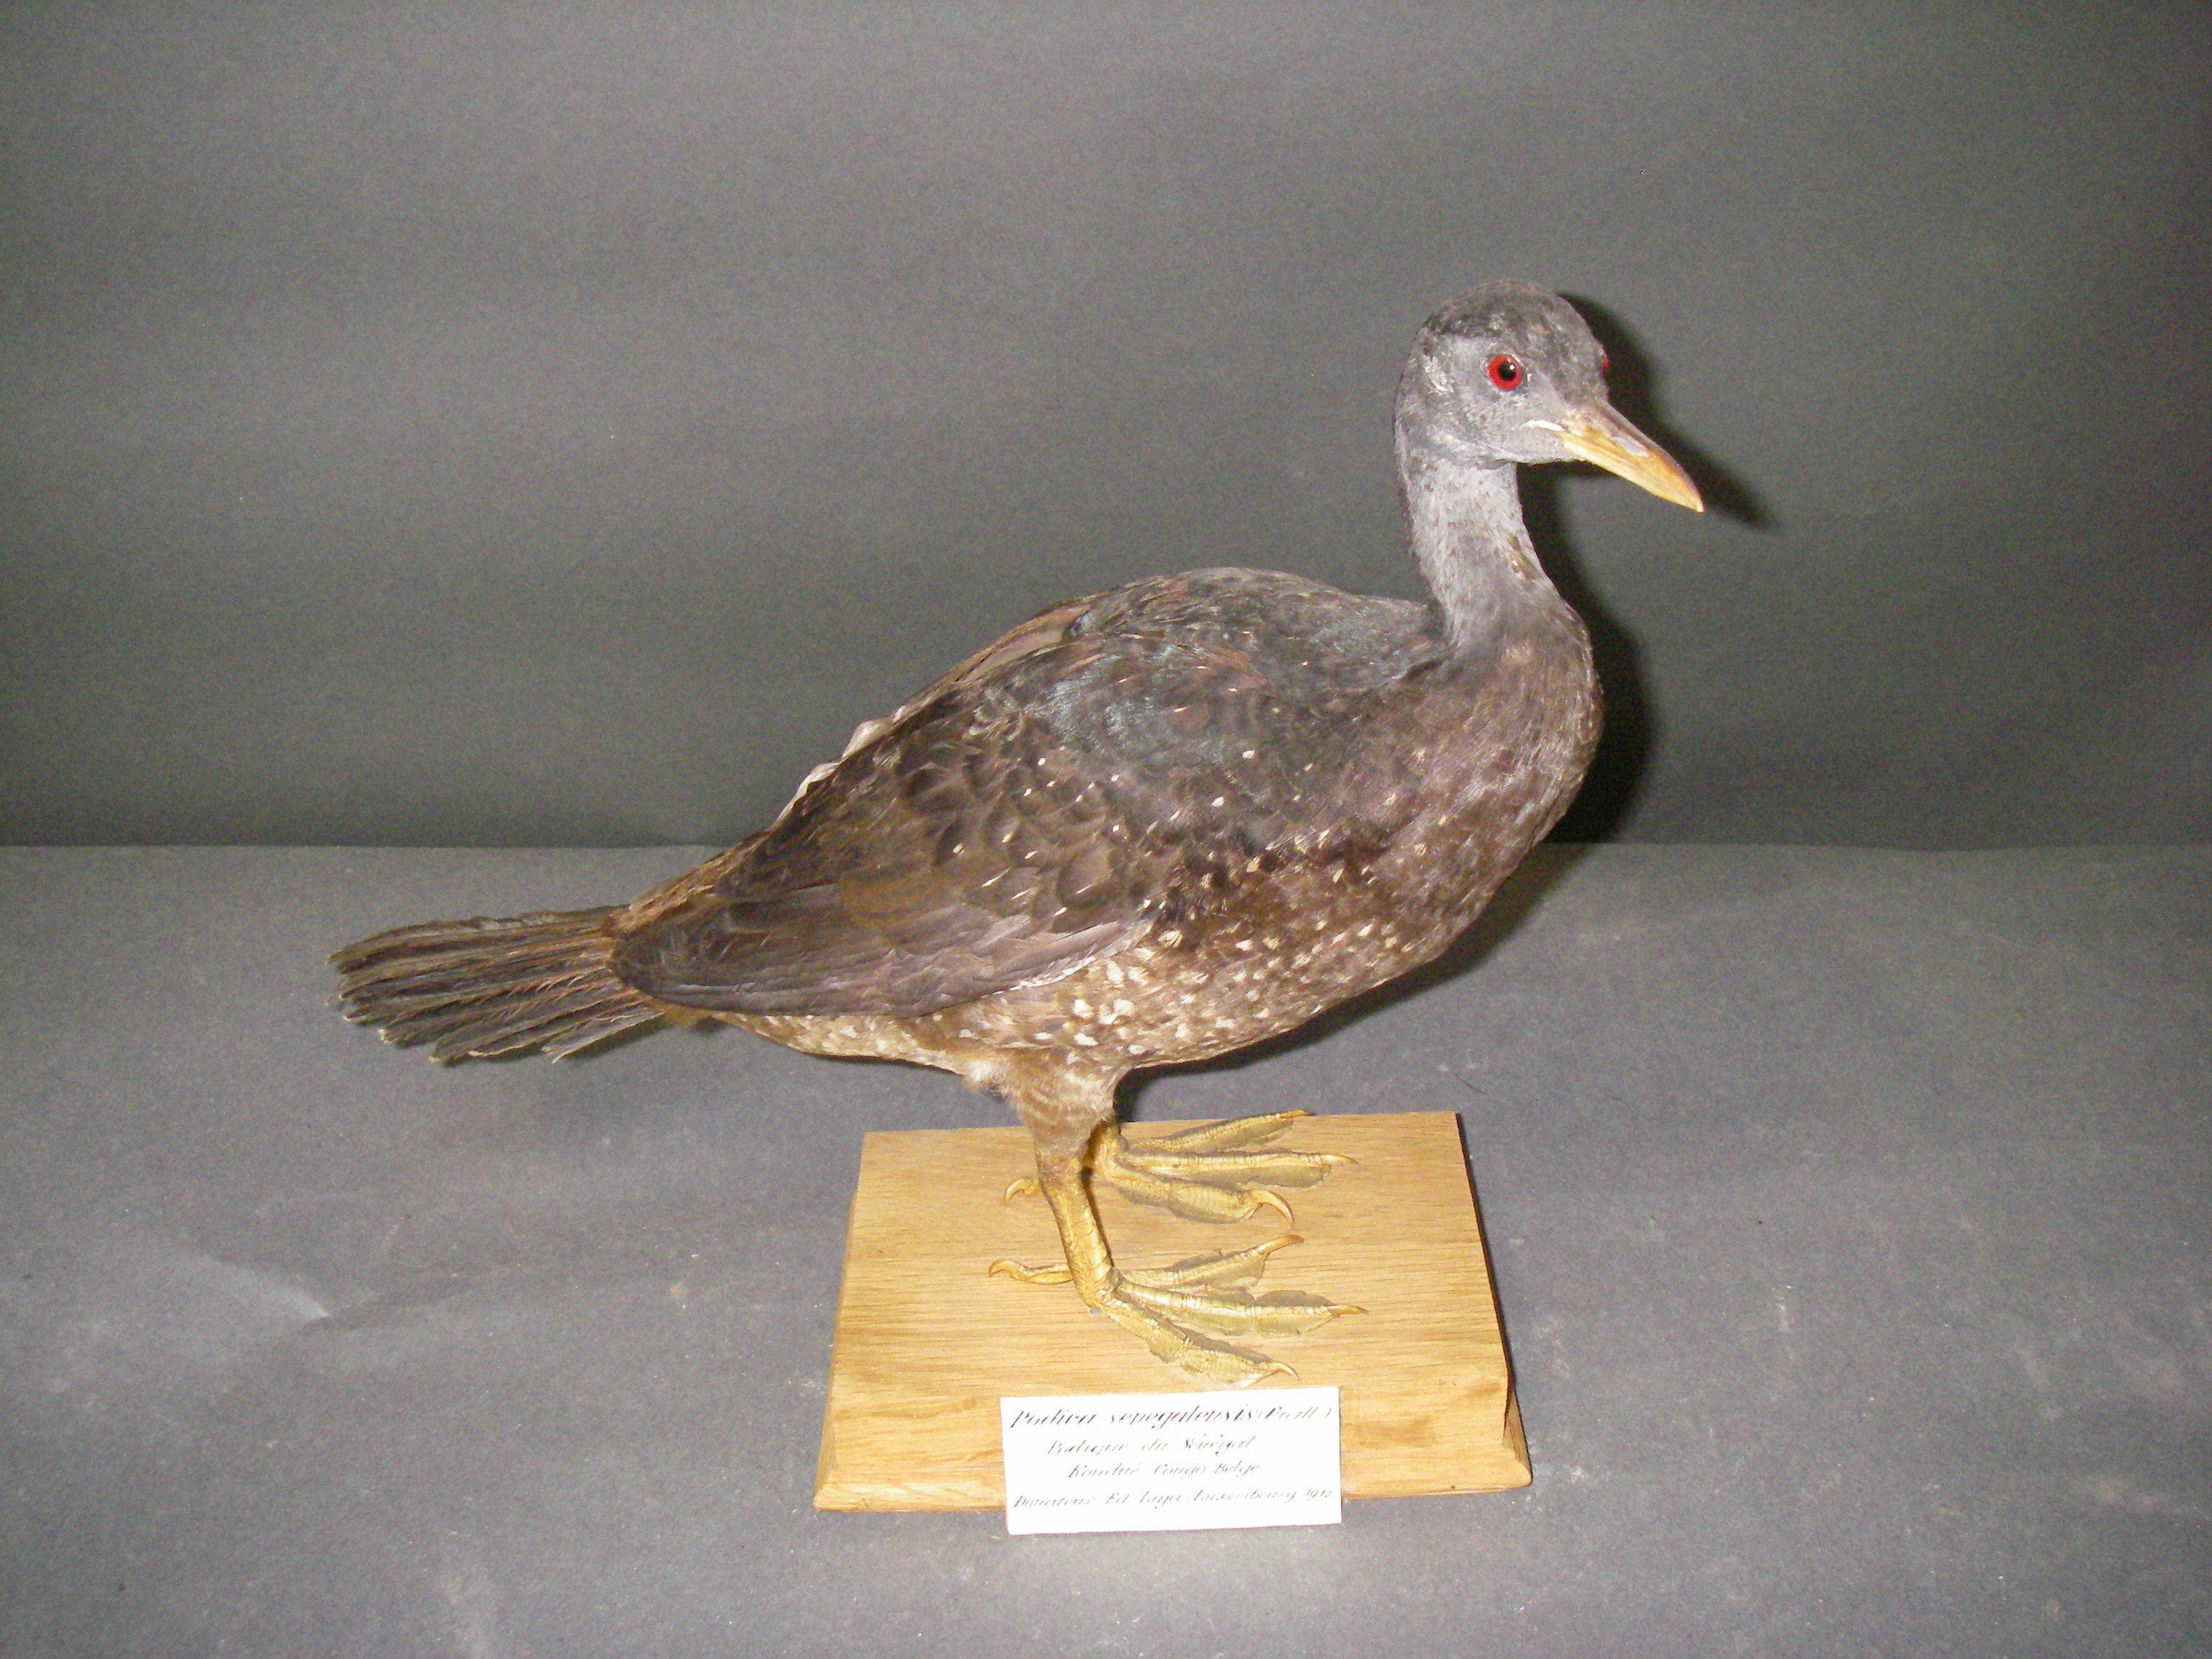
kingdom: Animalia
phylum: Chordata
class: Aves
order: Gruiformes
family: Heliornithidae
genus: Podica
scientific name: Podica senegalensis
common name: African finfoot
